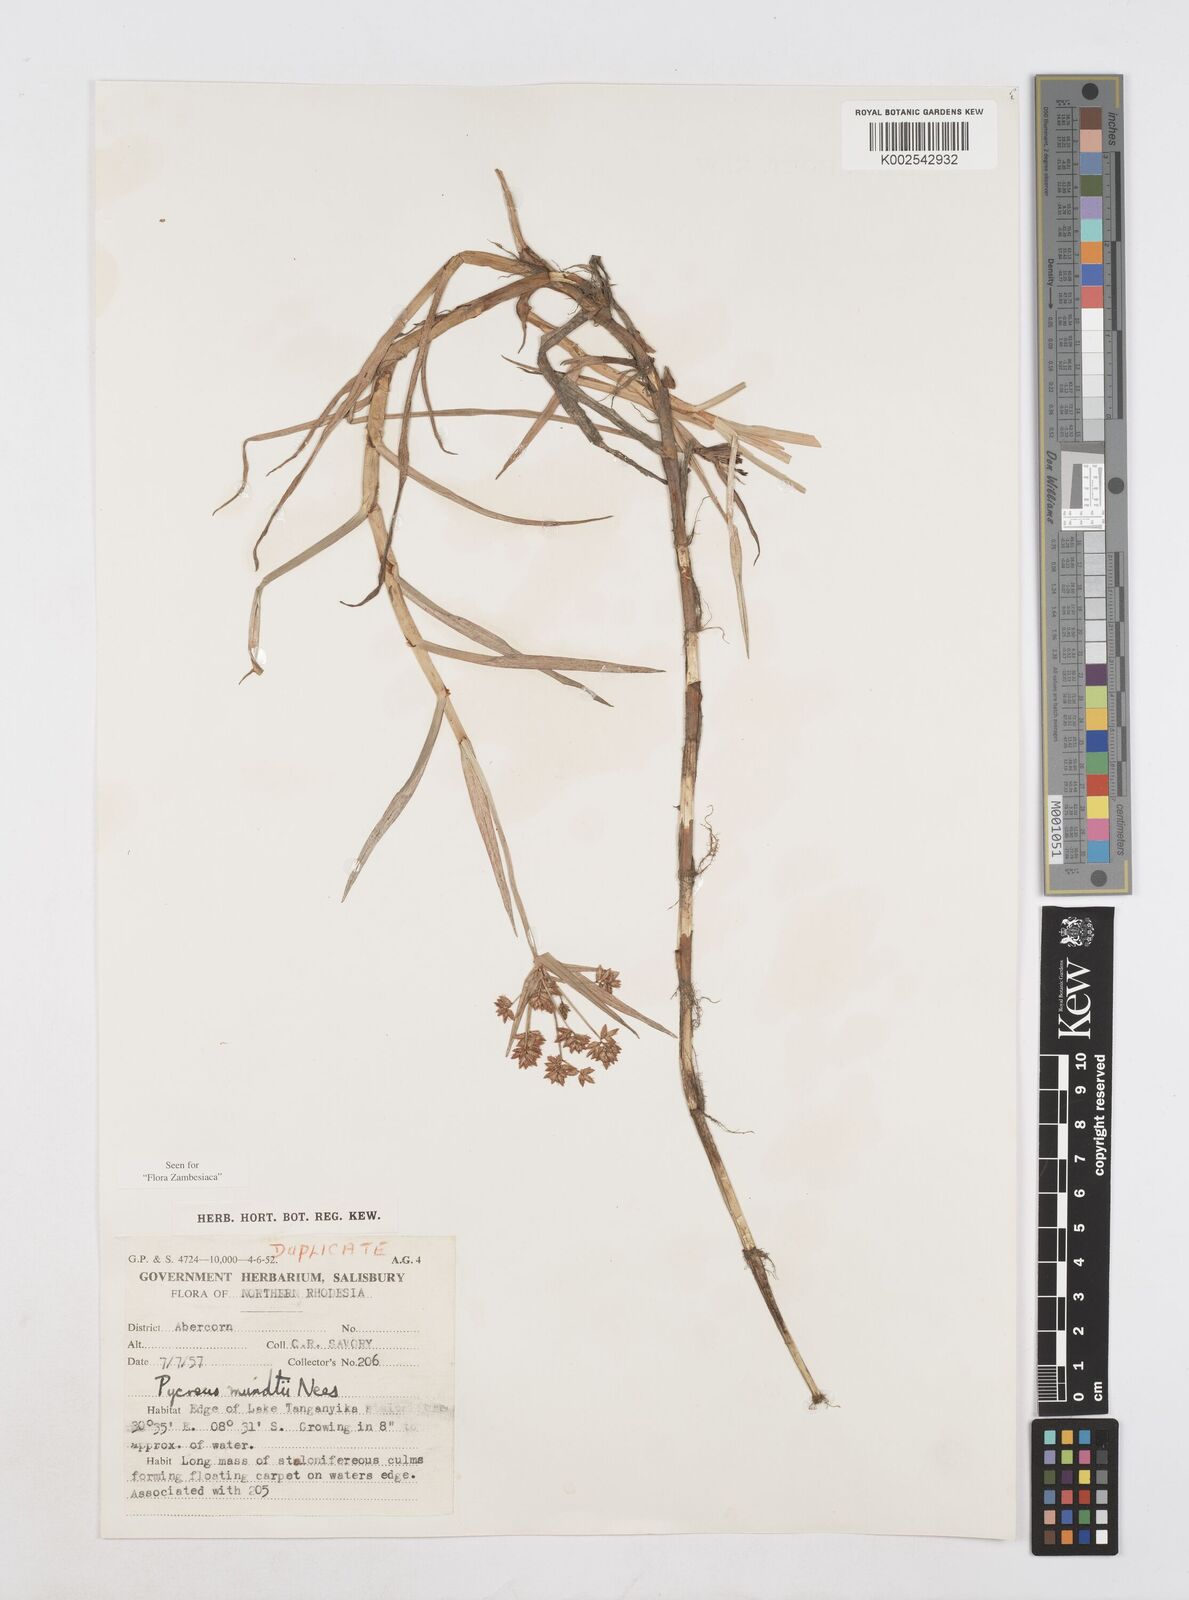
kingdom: Plantae
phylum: Tracheophyta
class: Liliopsida
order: Poales
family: Cyperaceae
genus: Cyperus
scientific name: Cyperus mundii
